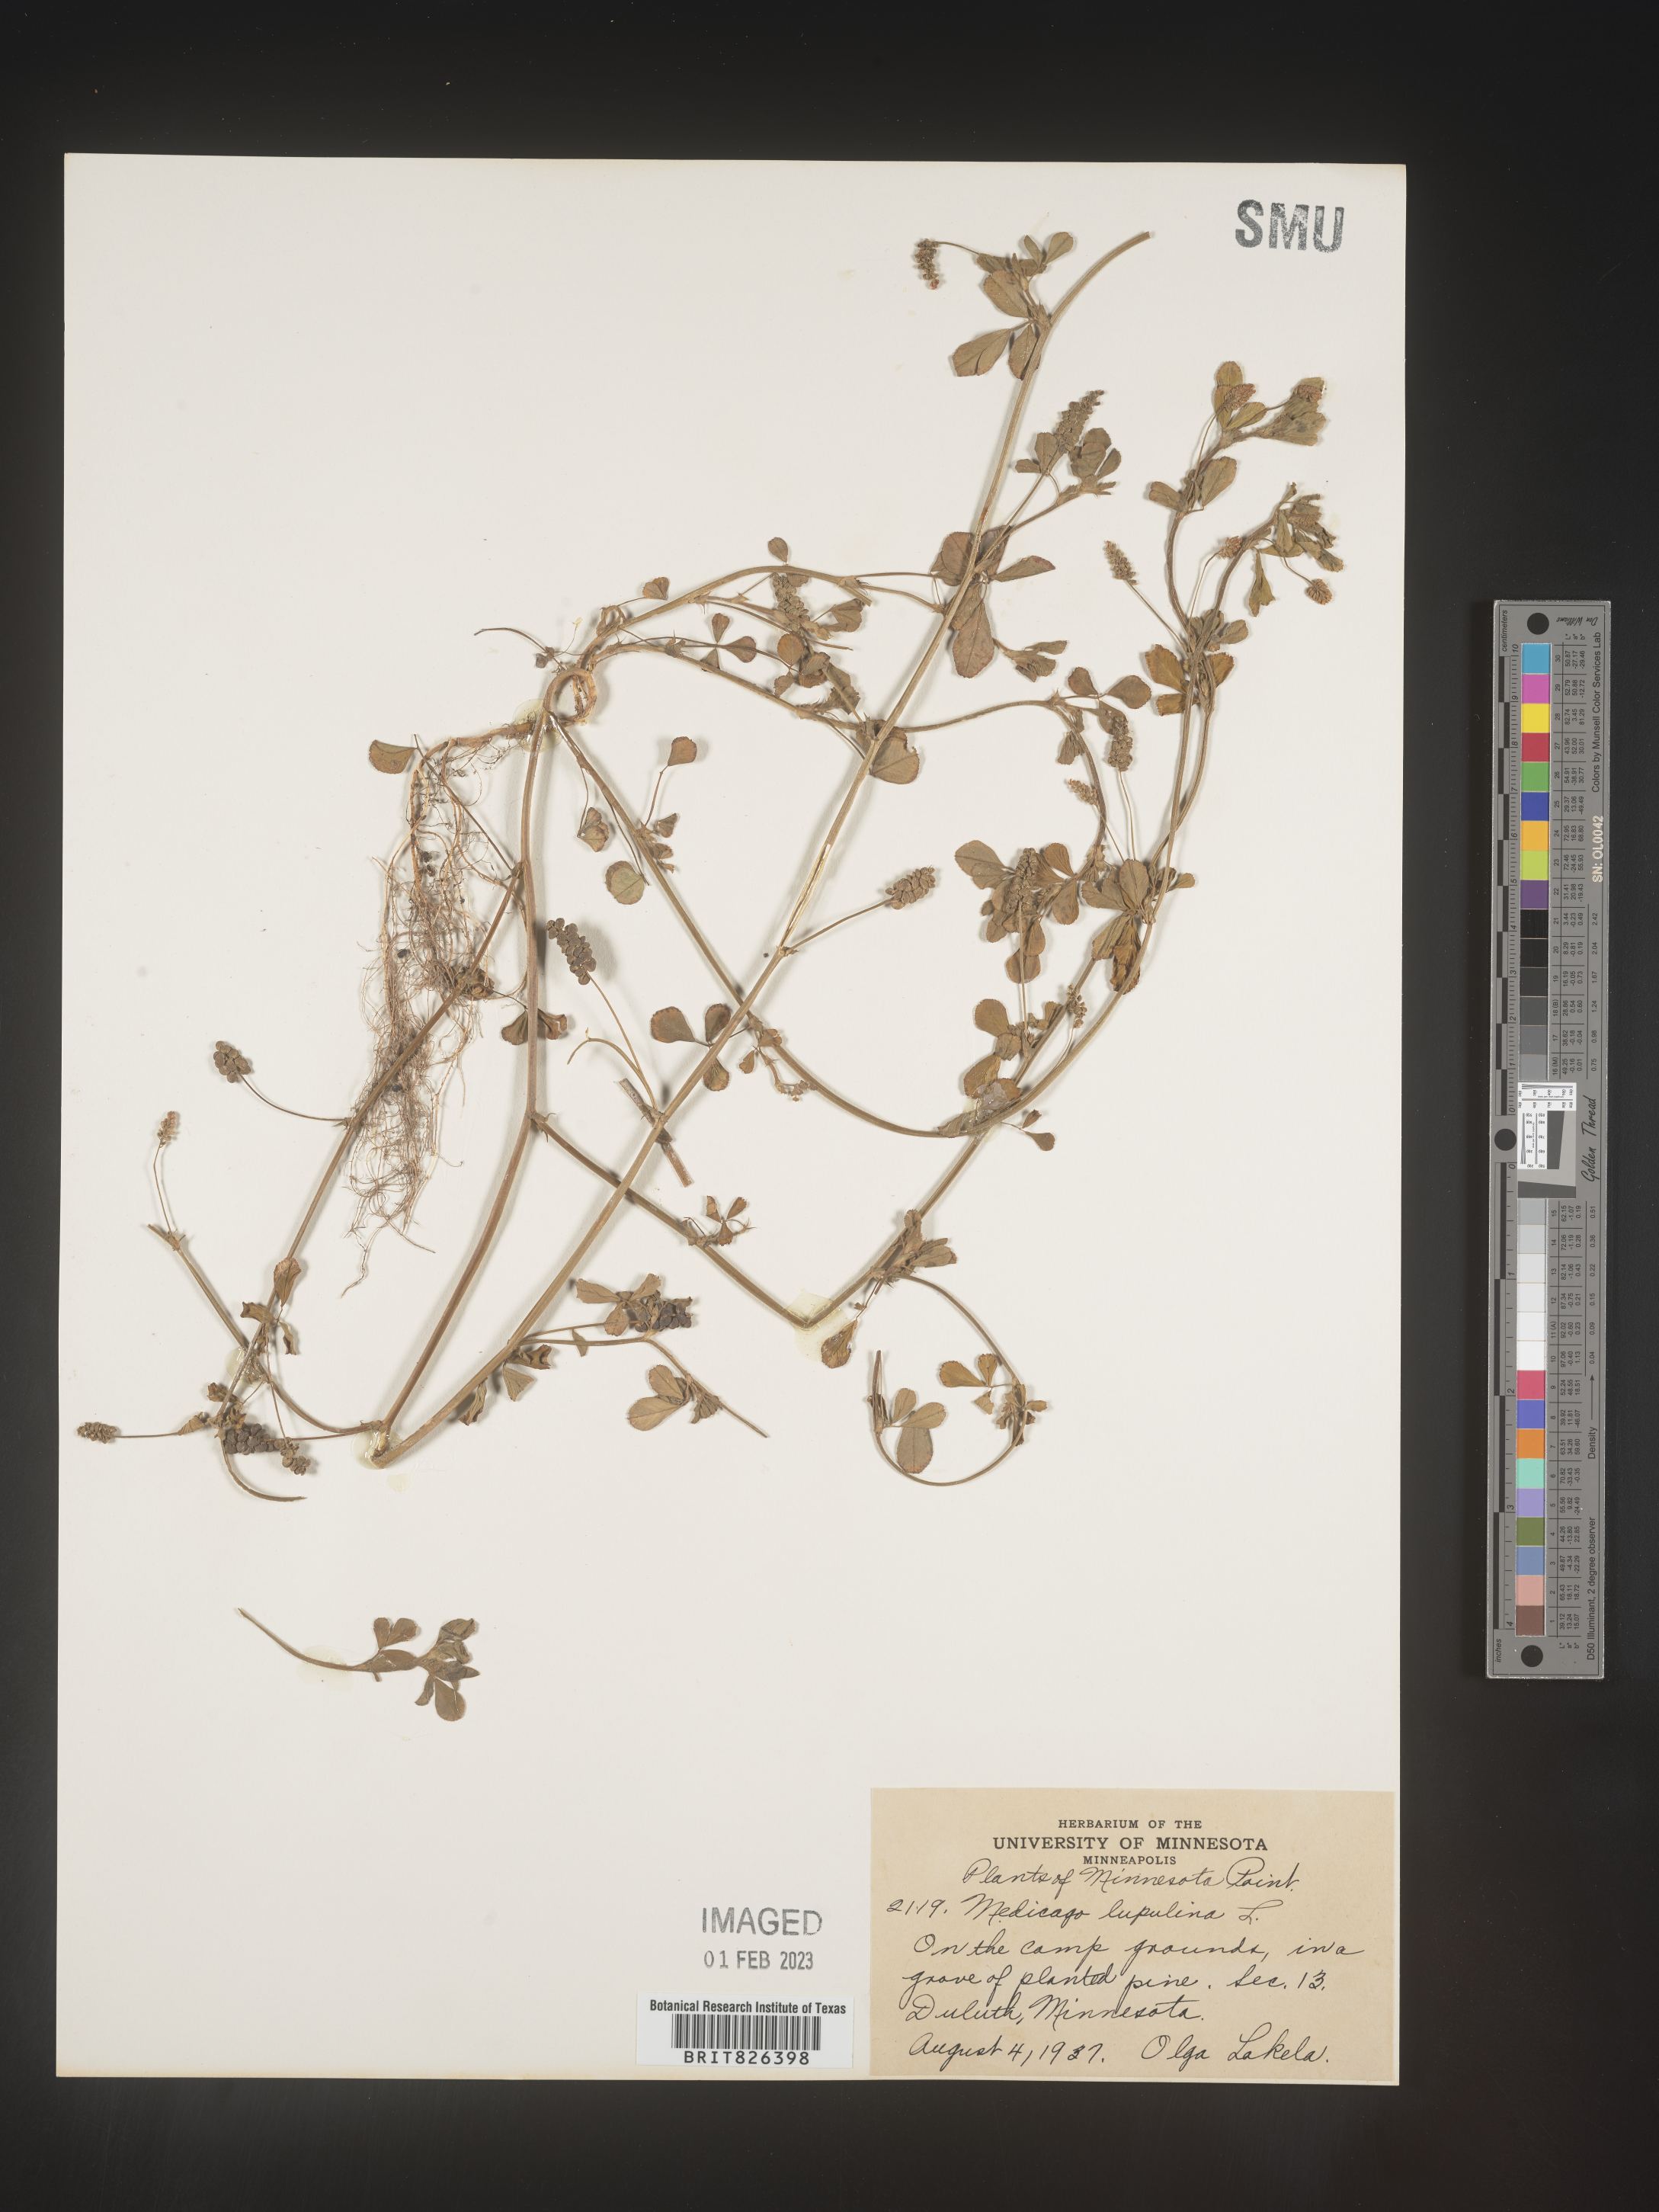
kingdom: Plantae
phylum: Tracheophyta
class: Magnoliopsida
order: Fabales
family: Fabaceae
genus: Medicago
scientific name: Medicago lupulina
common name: Black medick
